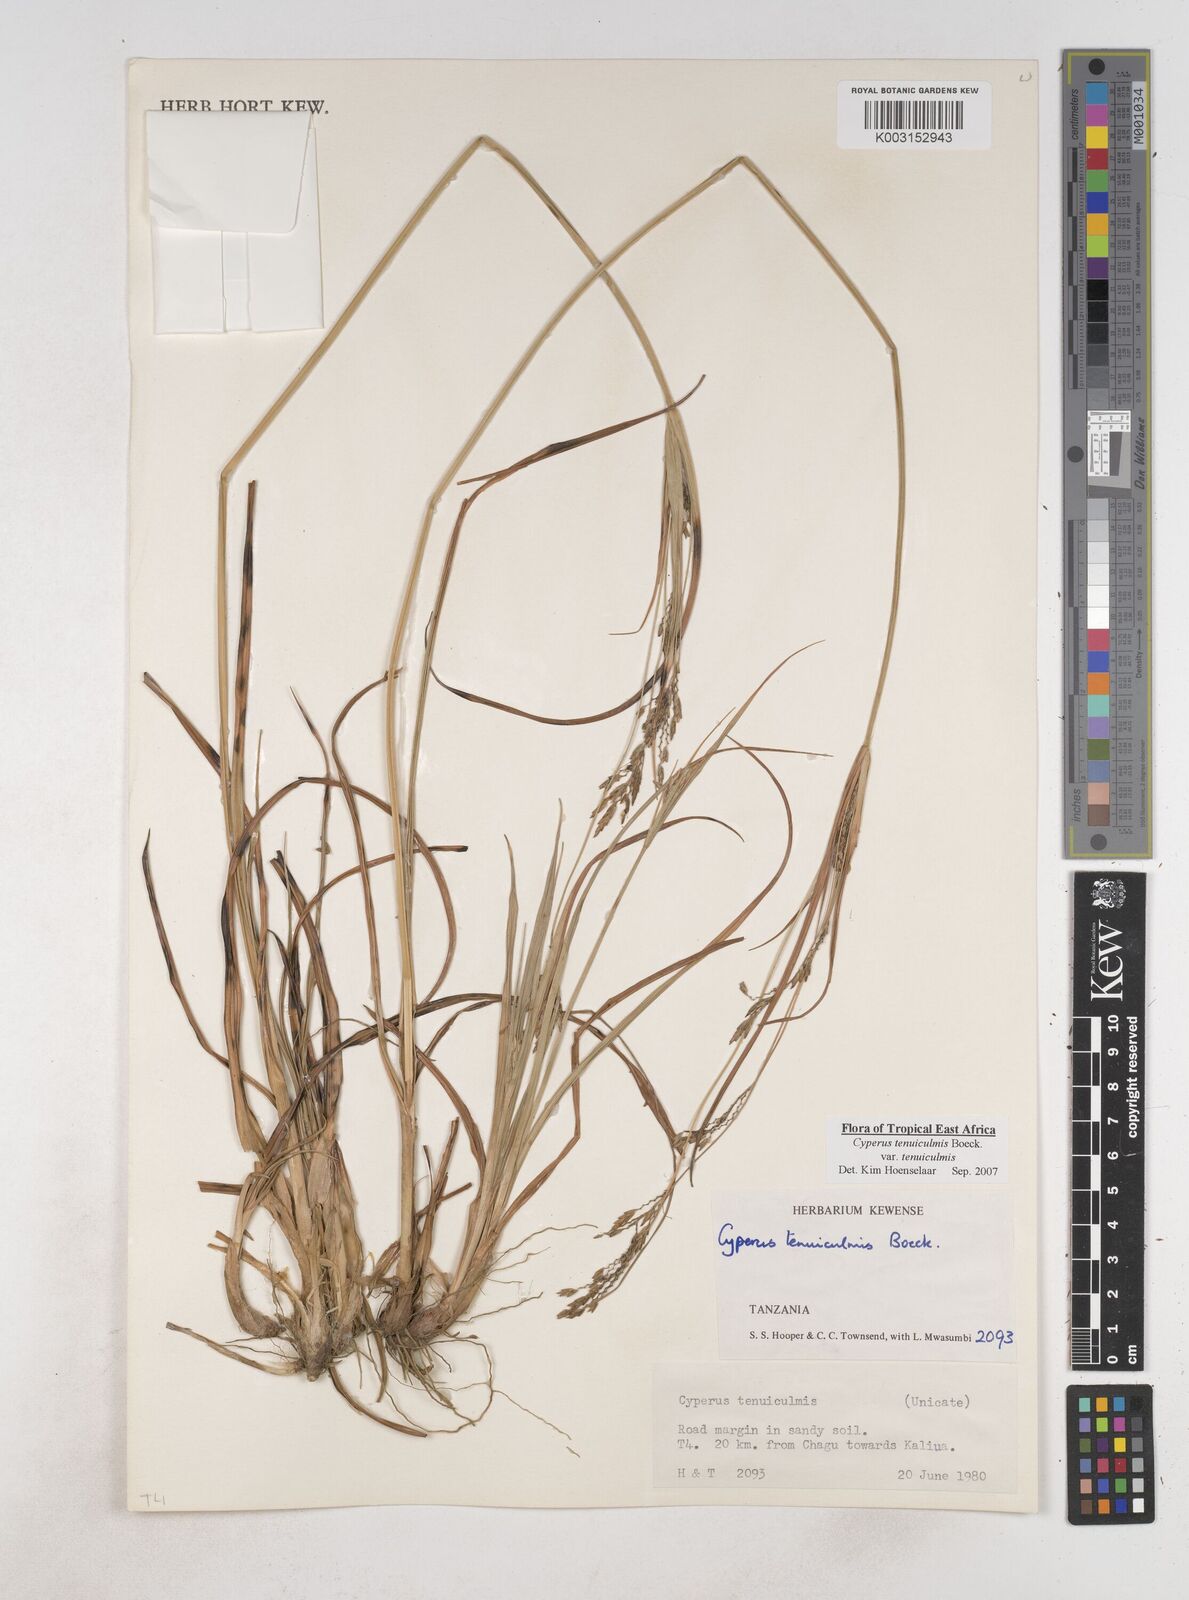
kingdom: Plantae
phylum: Tracheophyta
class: Liliopsida
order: Poales
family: Cyperaceae
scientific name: Cyperaceae
